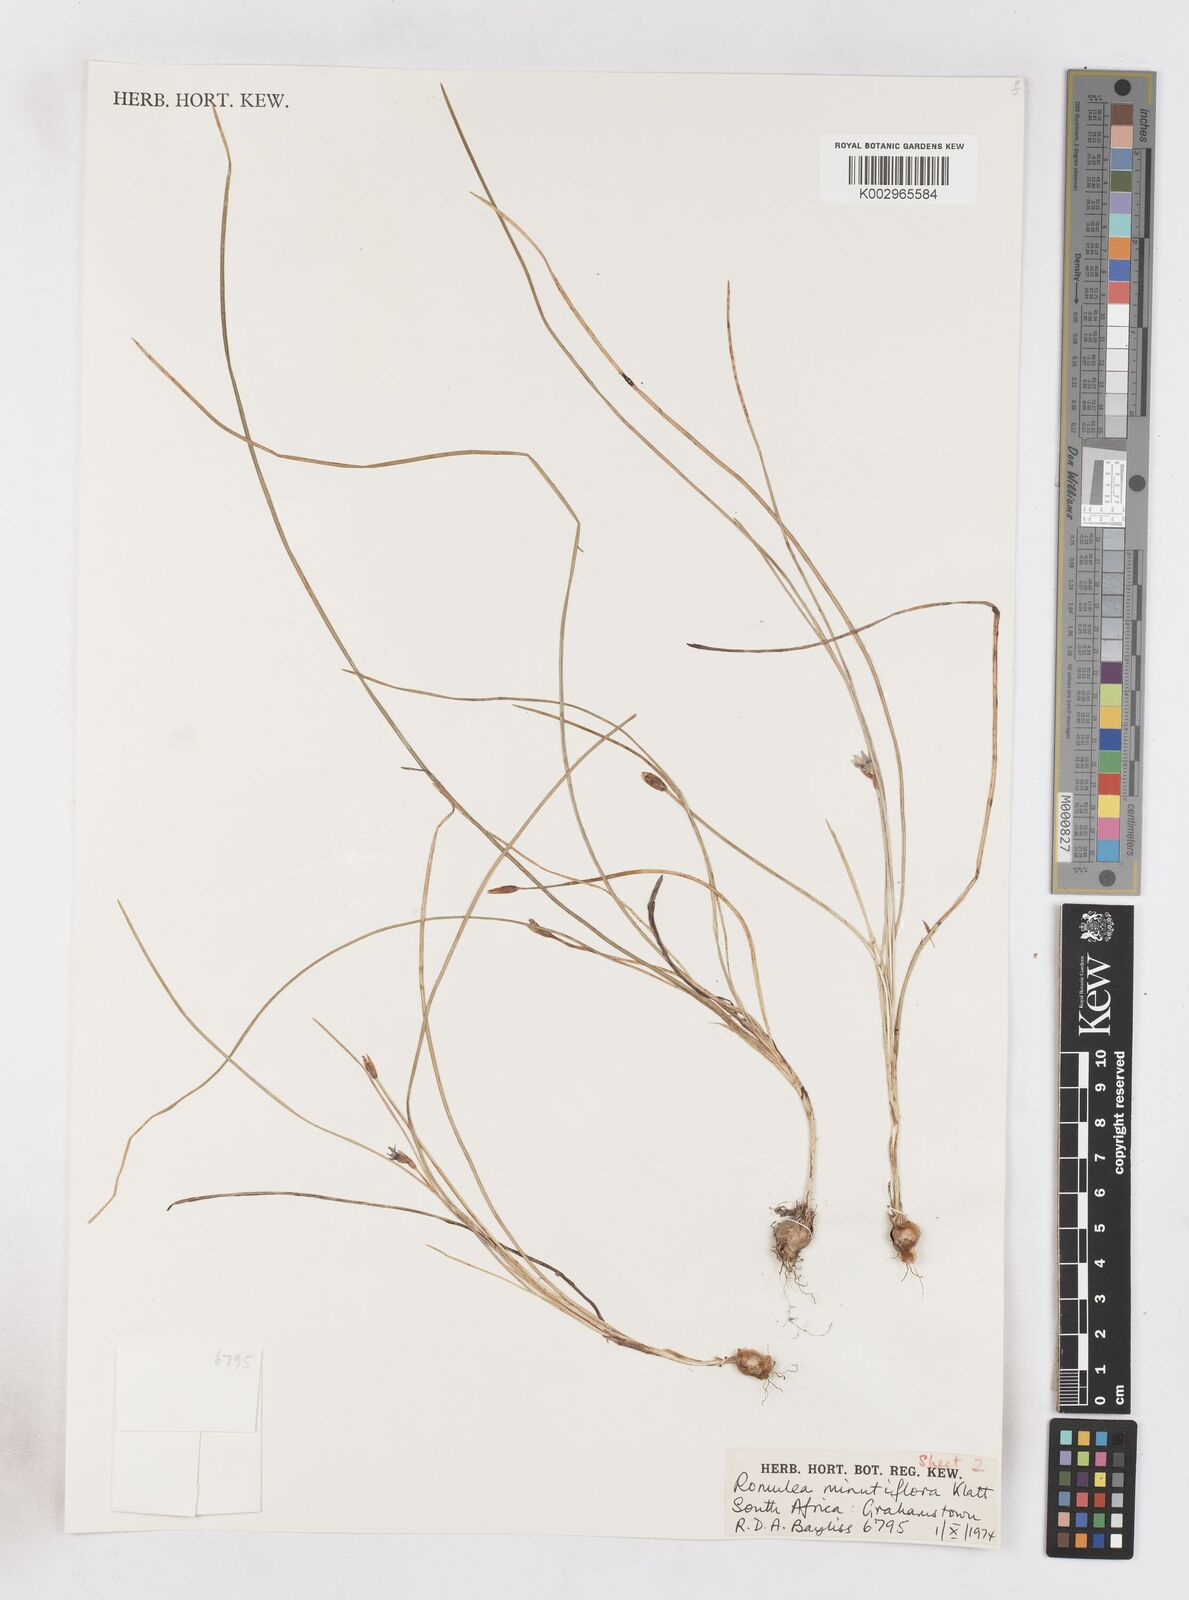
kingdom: Plantae
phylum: Tracheophyta
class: Liliopsida
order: Asparagales
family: Iridaceae
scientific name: Iridaceae
